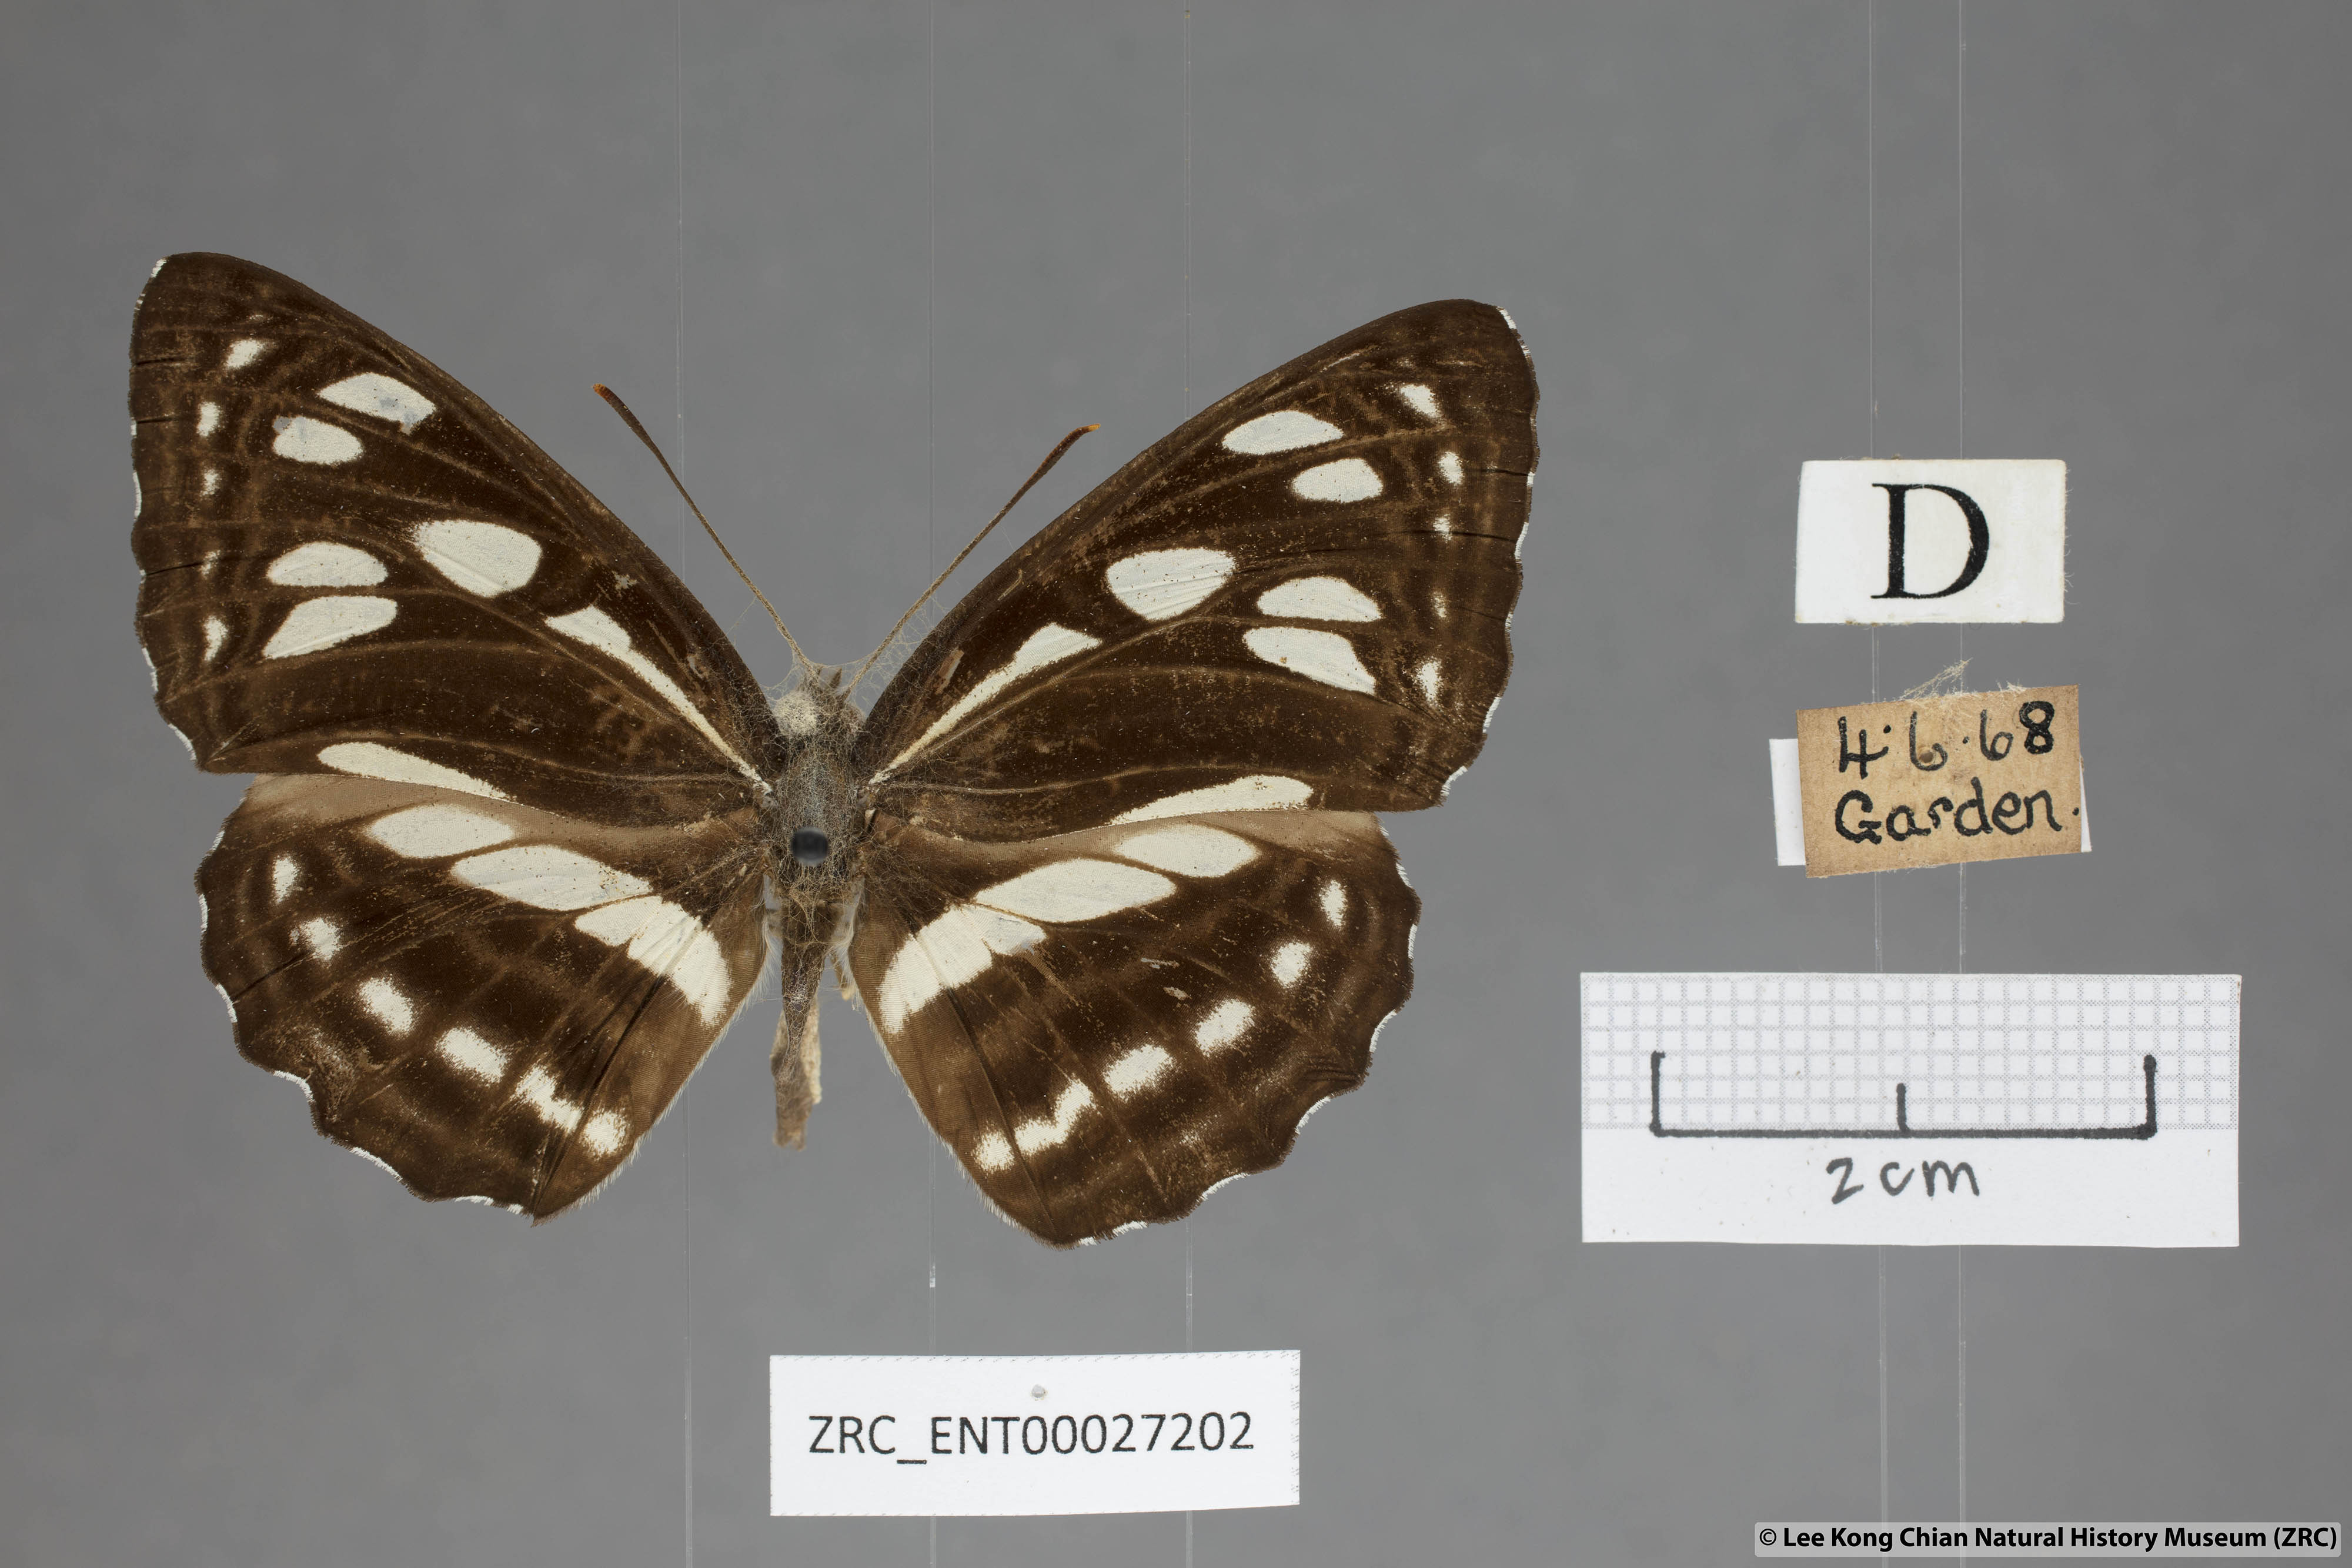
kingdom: Animalia
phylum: Arthropoda
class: Insecta
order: Lepidoptera
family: Nymphalidae
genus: Phaedyma
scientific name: Phaedyma columella
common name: Short banded sailer
